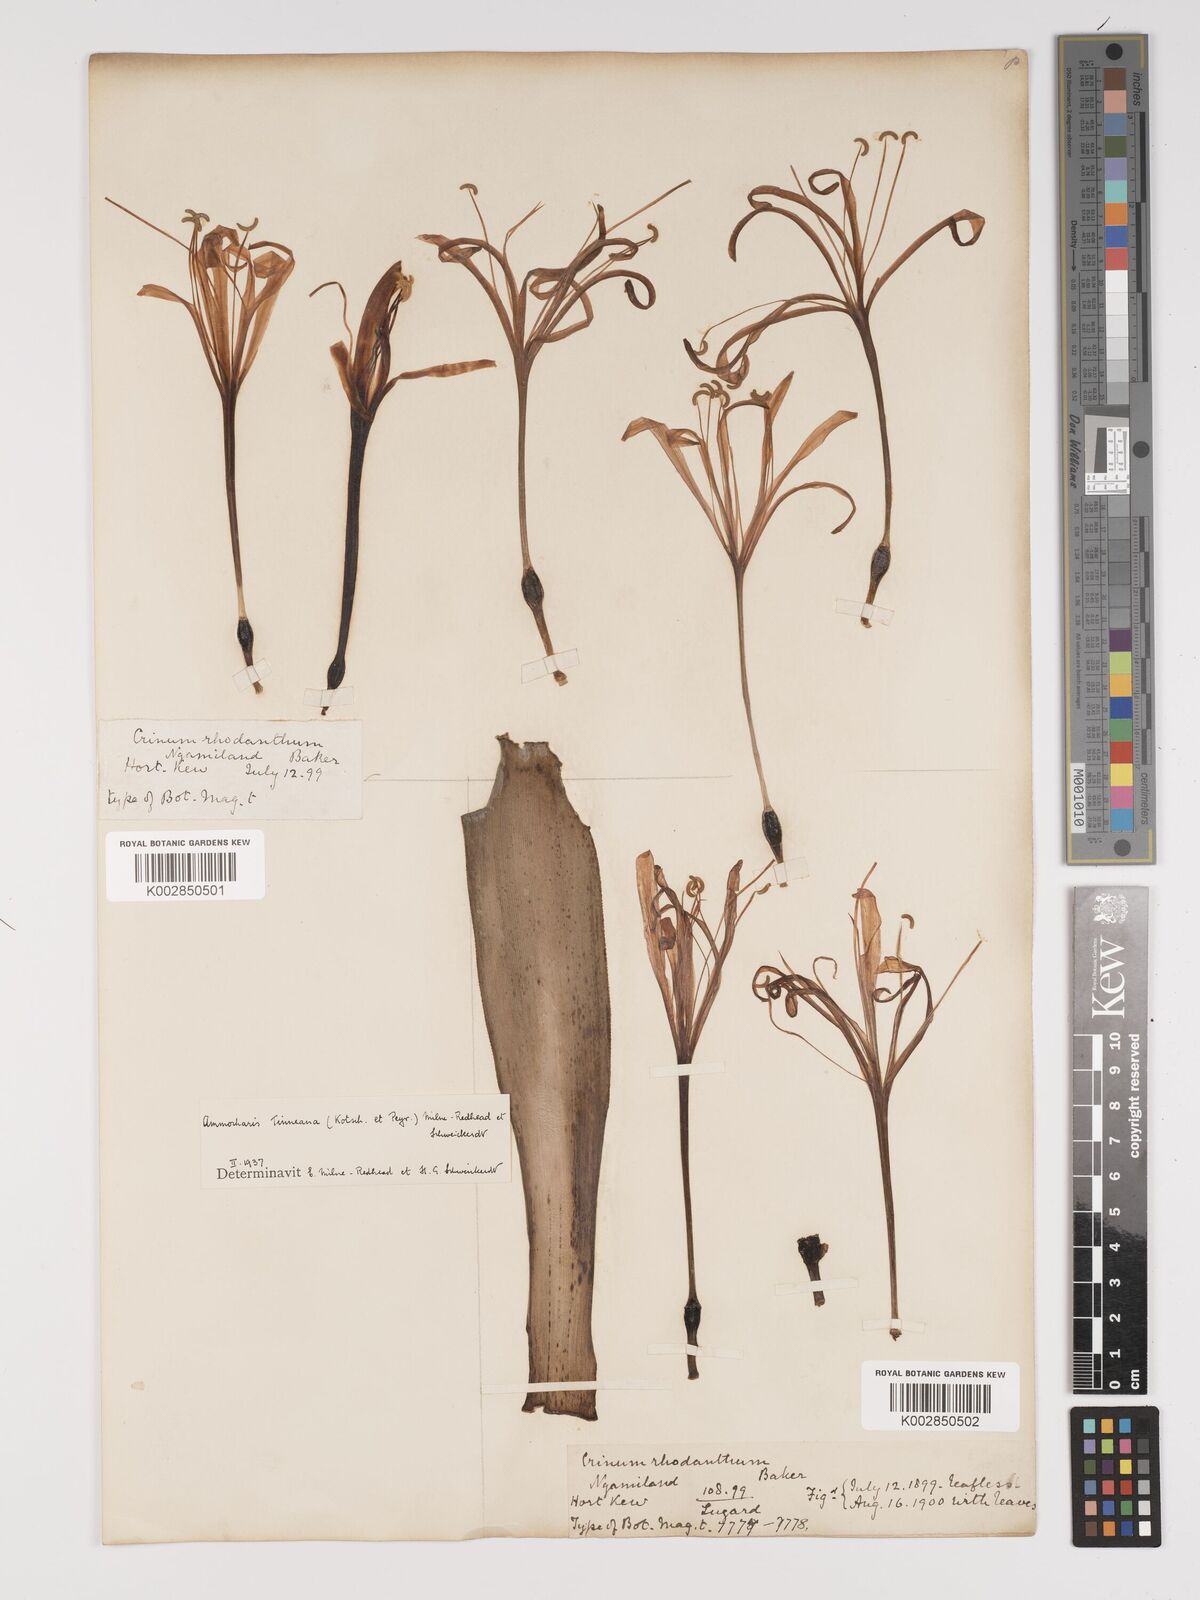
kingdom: Plantae
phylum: Tracheophyta
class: Liliopsida
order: Asparagales
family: Amaryllidaceae
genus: Ammocharis
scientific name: Ammocharis
